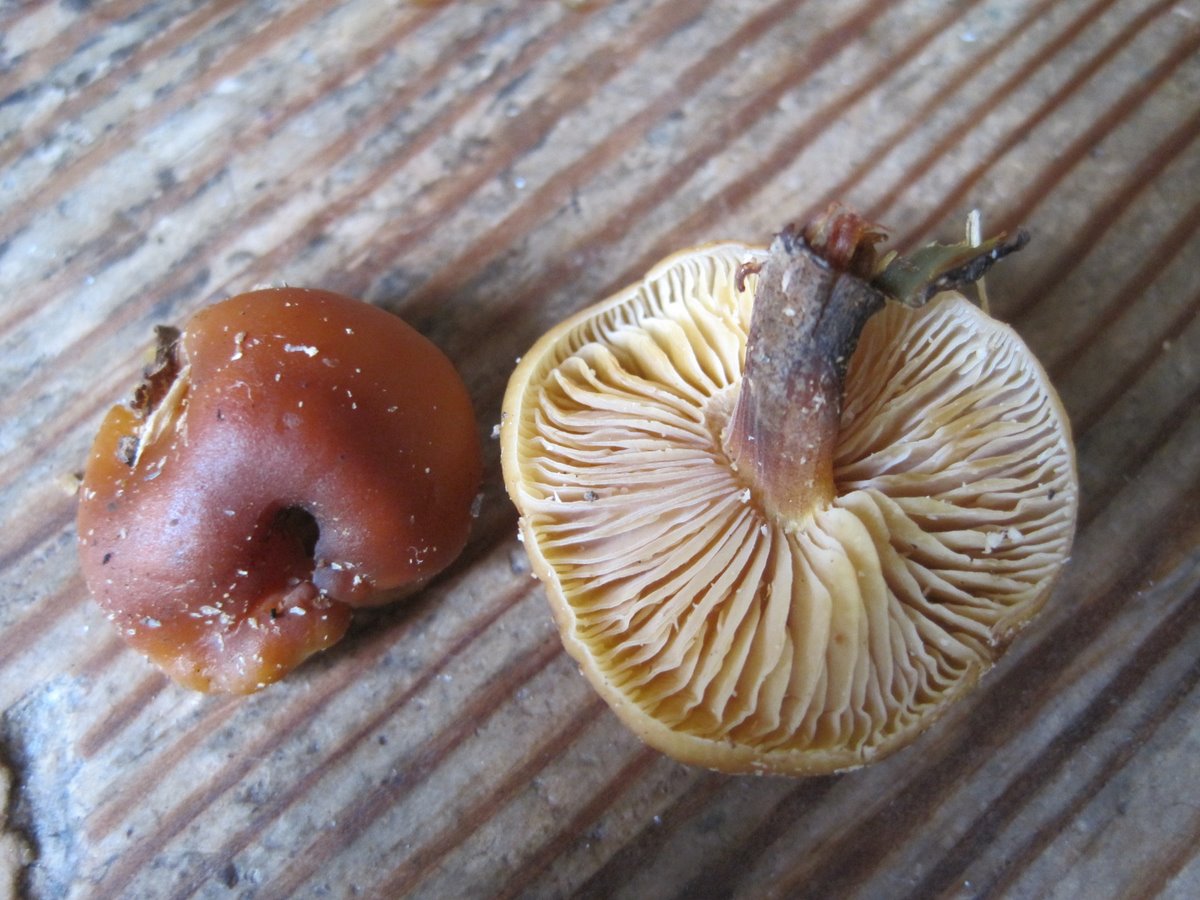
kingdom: Fungi
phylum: Basidiomycota
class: Agaricomycetes
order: Agaricales
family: Physalacriaceae
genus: Flammulina
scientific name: Flammulina velutipes
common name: gul fløjlsfod
